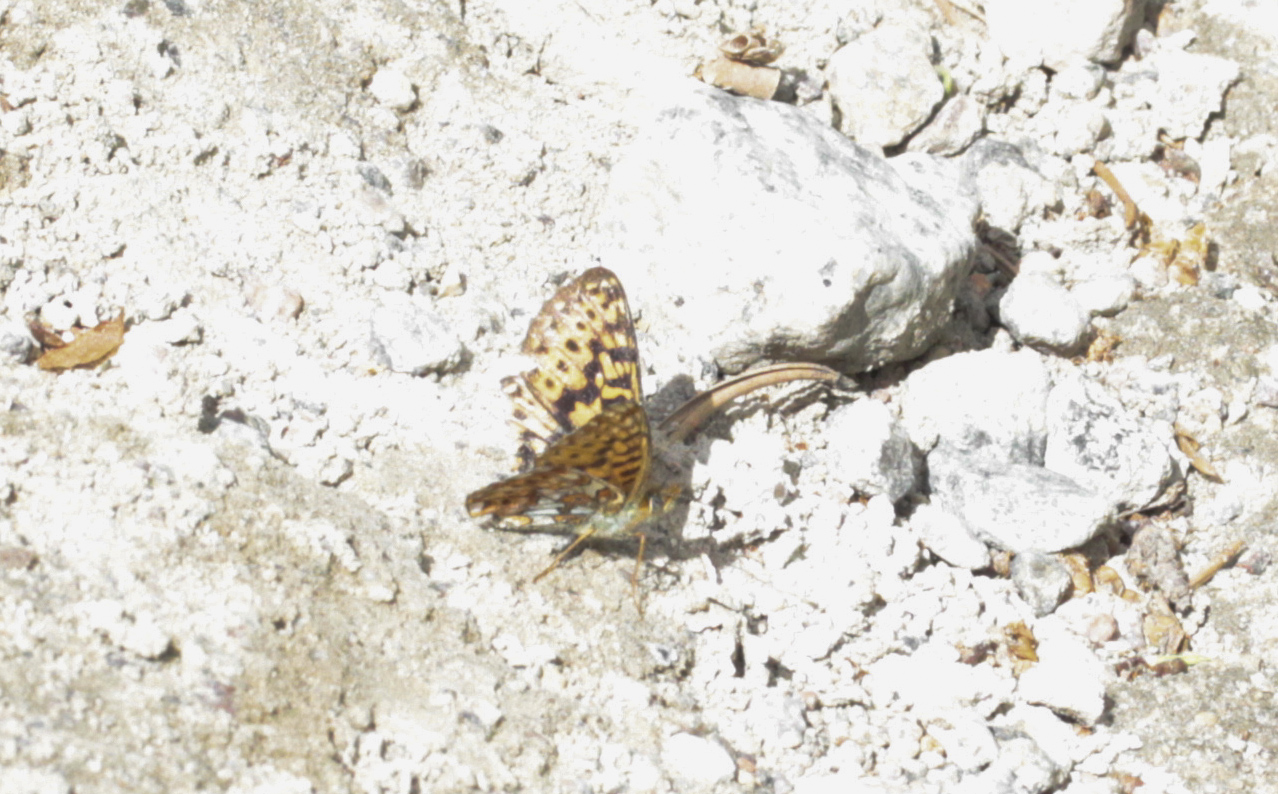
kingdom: Animalia
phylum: Arthropoda
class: Insecta
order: Lepidoptera
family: Nymphalidae
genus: Clossiana
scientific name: Clossiana euphrosyne
